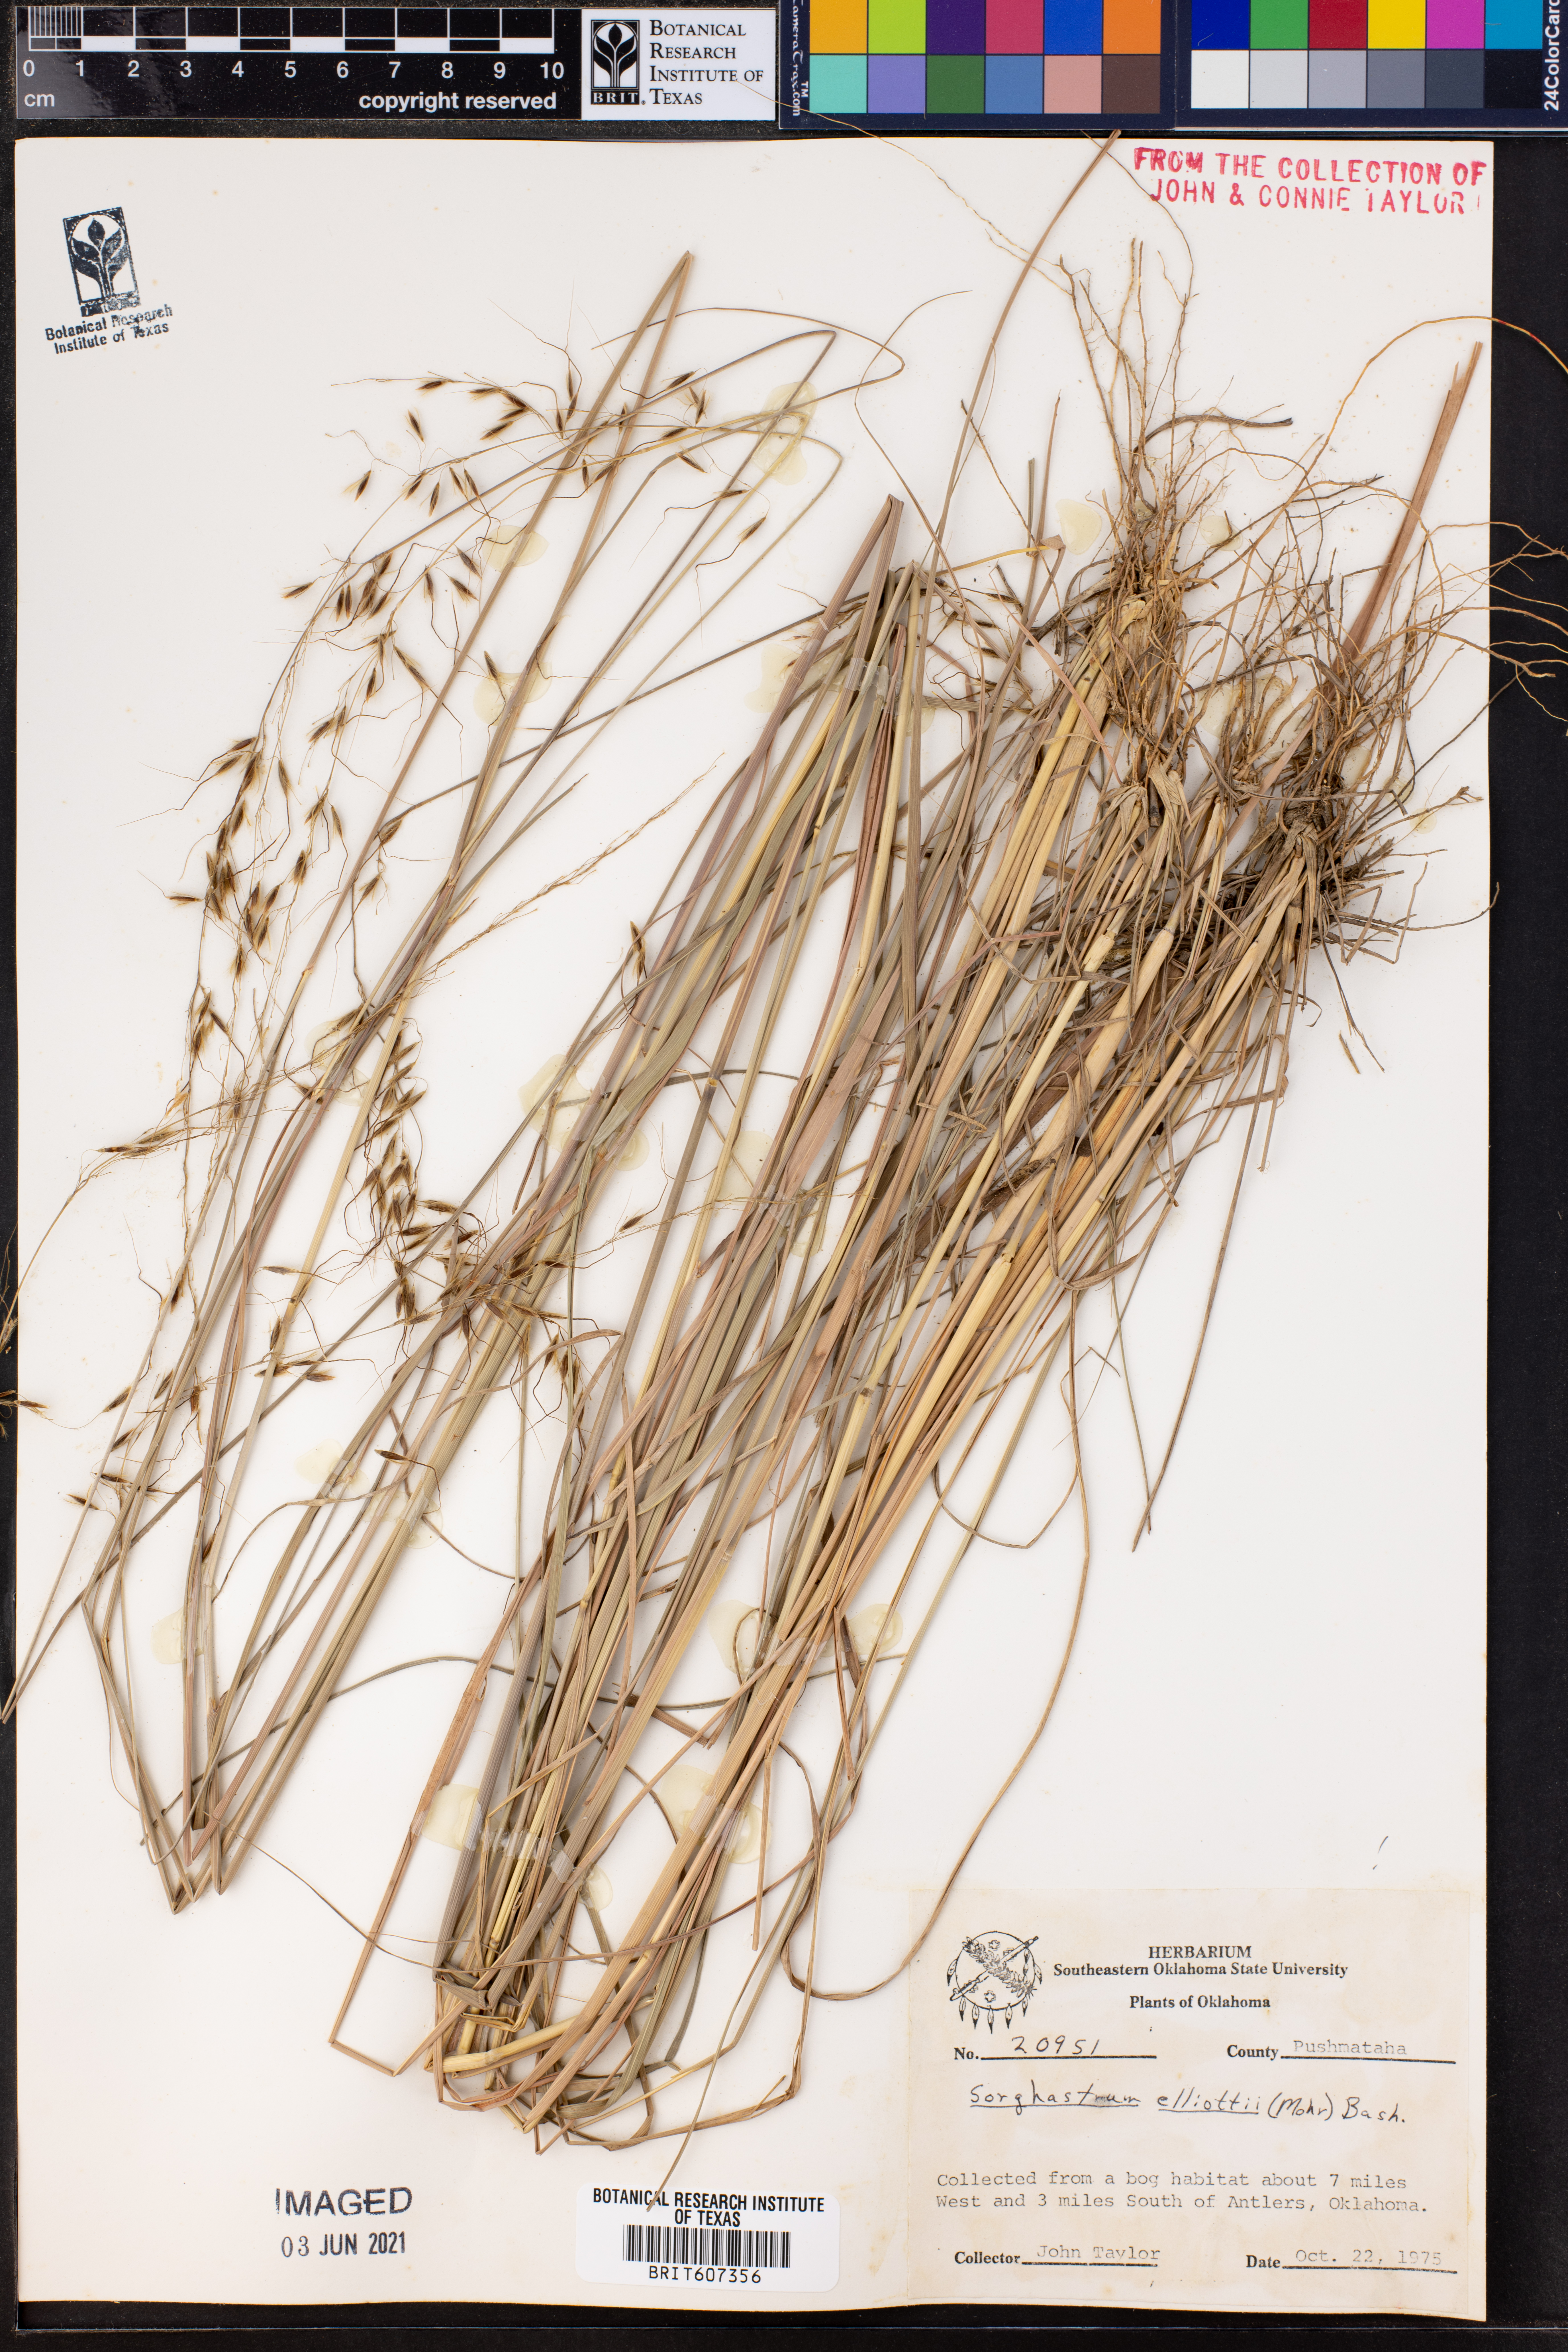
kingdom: Plantae
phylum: Tracheophyta
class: Liliopsida
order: Poales
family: Poaceae
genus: Sorghastrum
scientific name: Sorghastrum elliottii
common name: Slender indian grass
